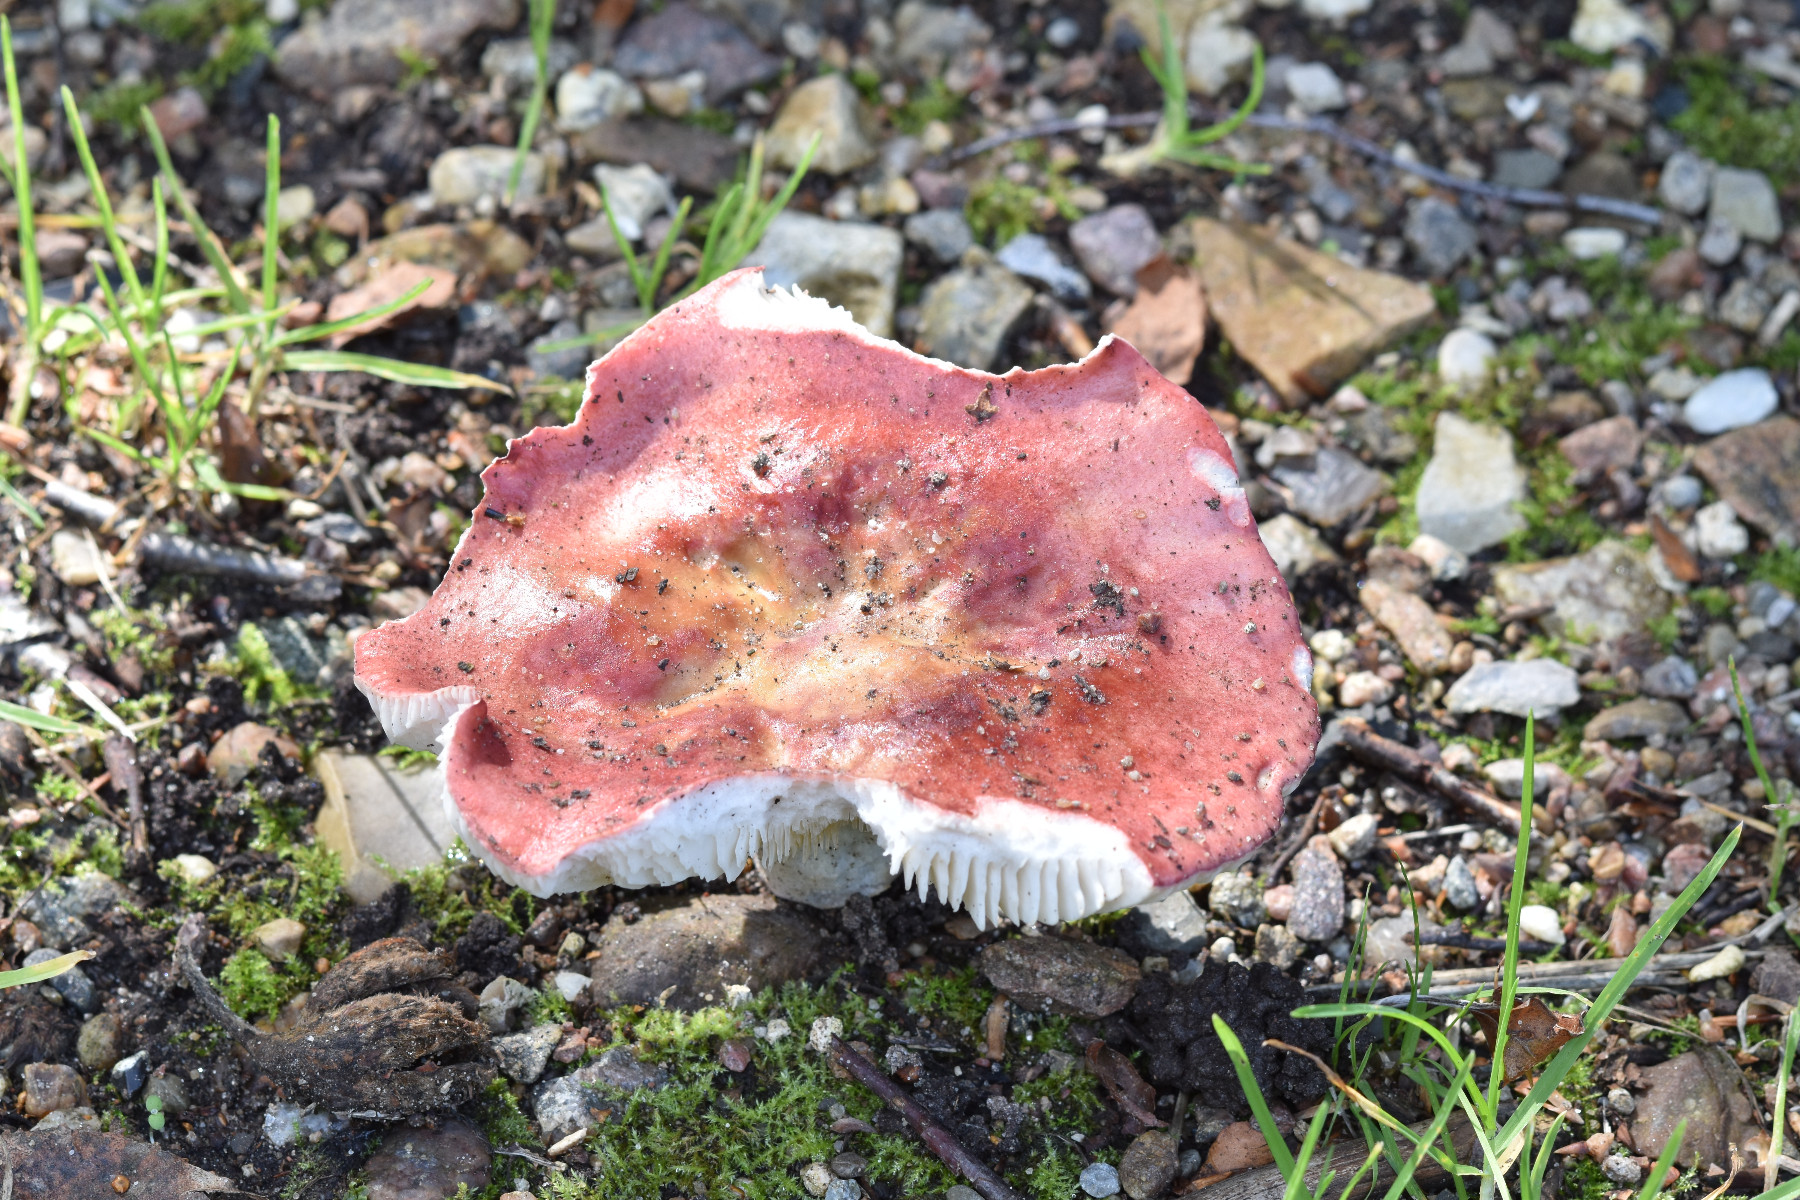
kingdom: Fungi
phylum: Basidiomycota
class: Agaricomycetes
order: Russulales
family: Russulaceae
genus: Russula
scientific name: Russula depallens
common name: falmende skørhat
